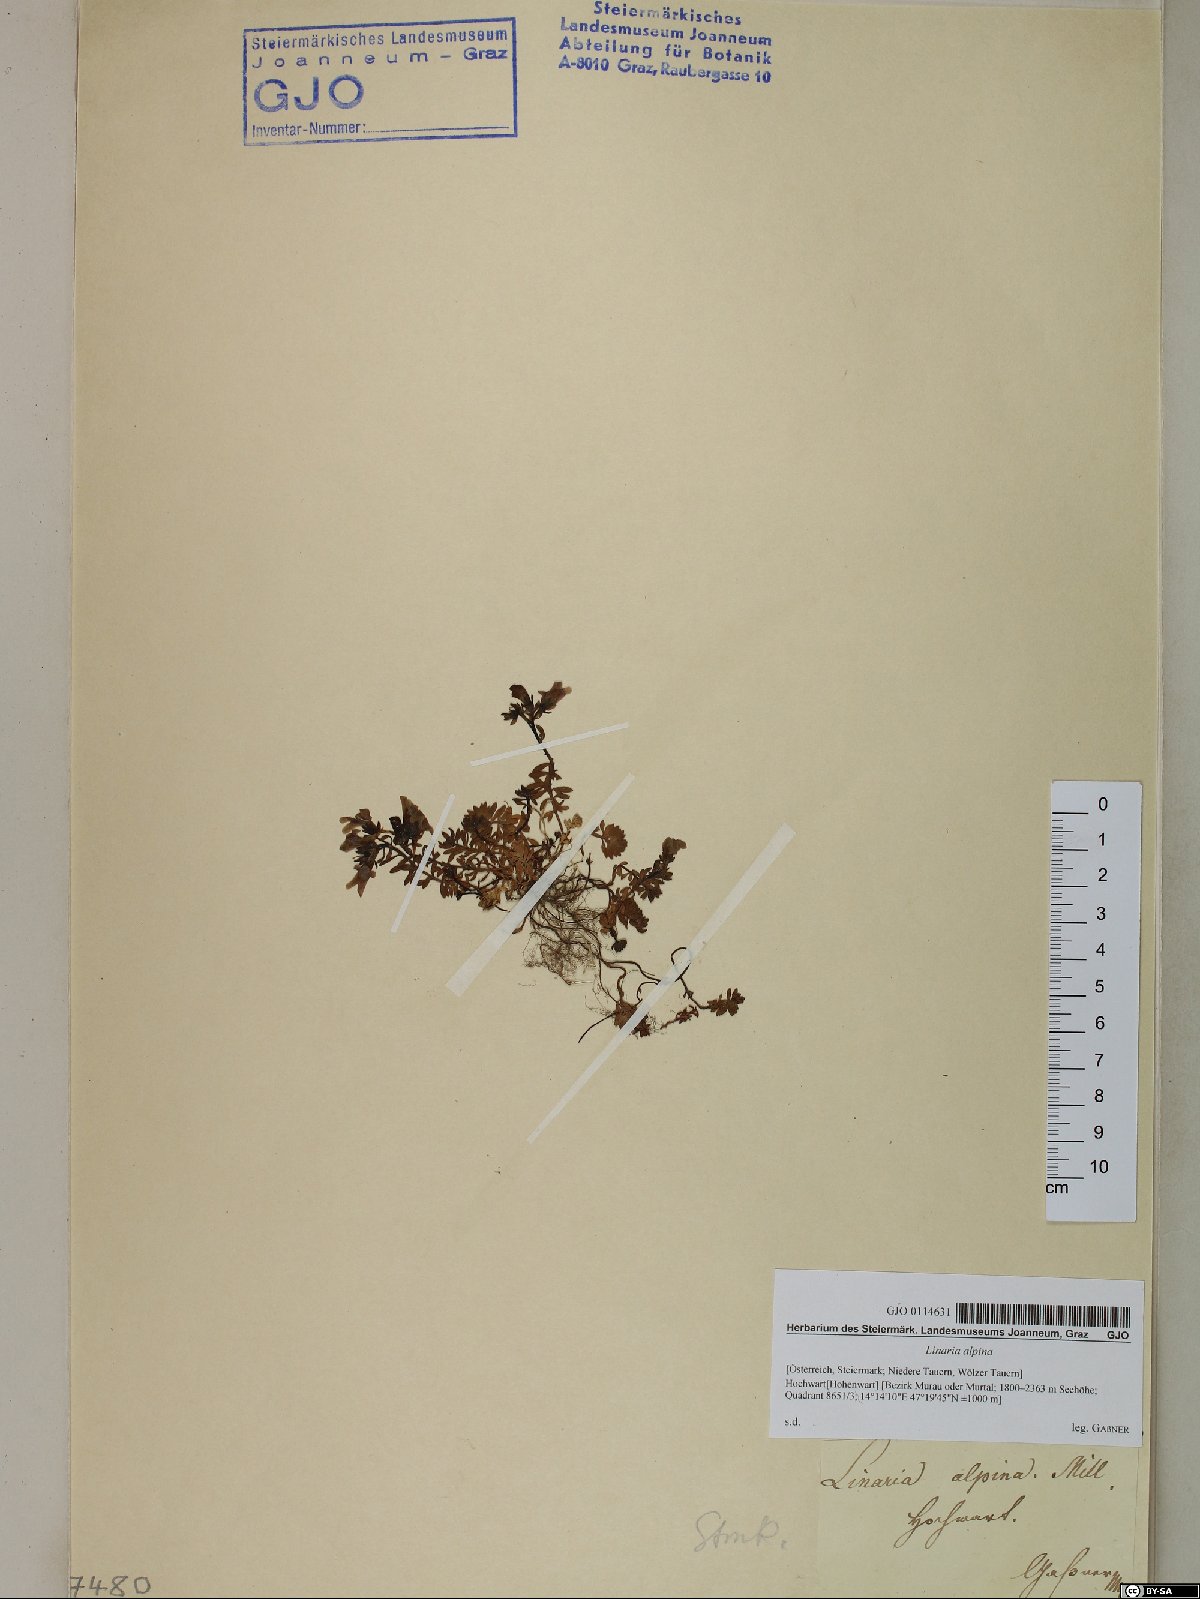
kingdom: Plantae
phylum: Tracheophyta
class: Magnoliopsida
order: Lamiales
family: Plantaginaceae
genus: Linaria
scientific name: Linaria alpina
